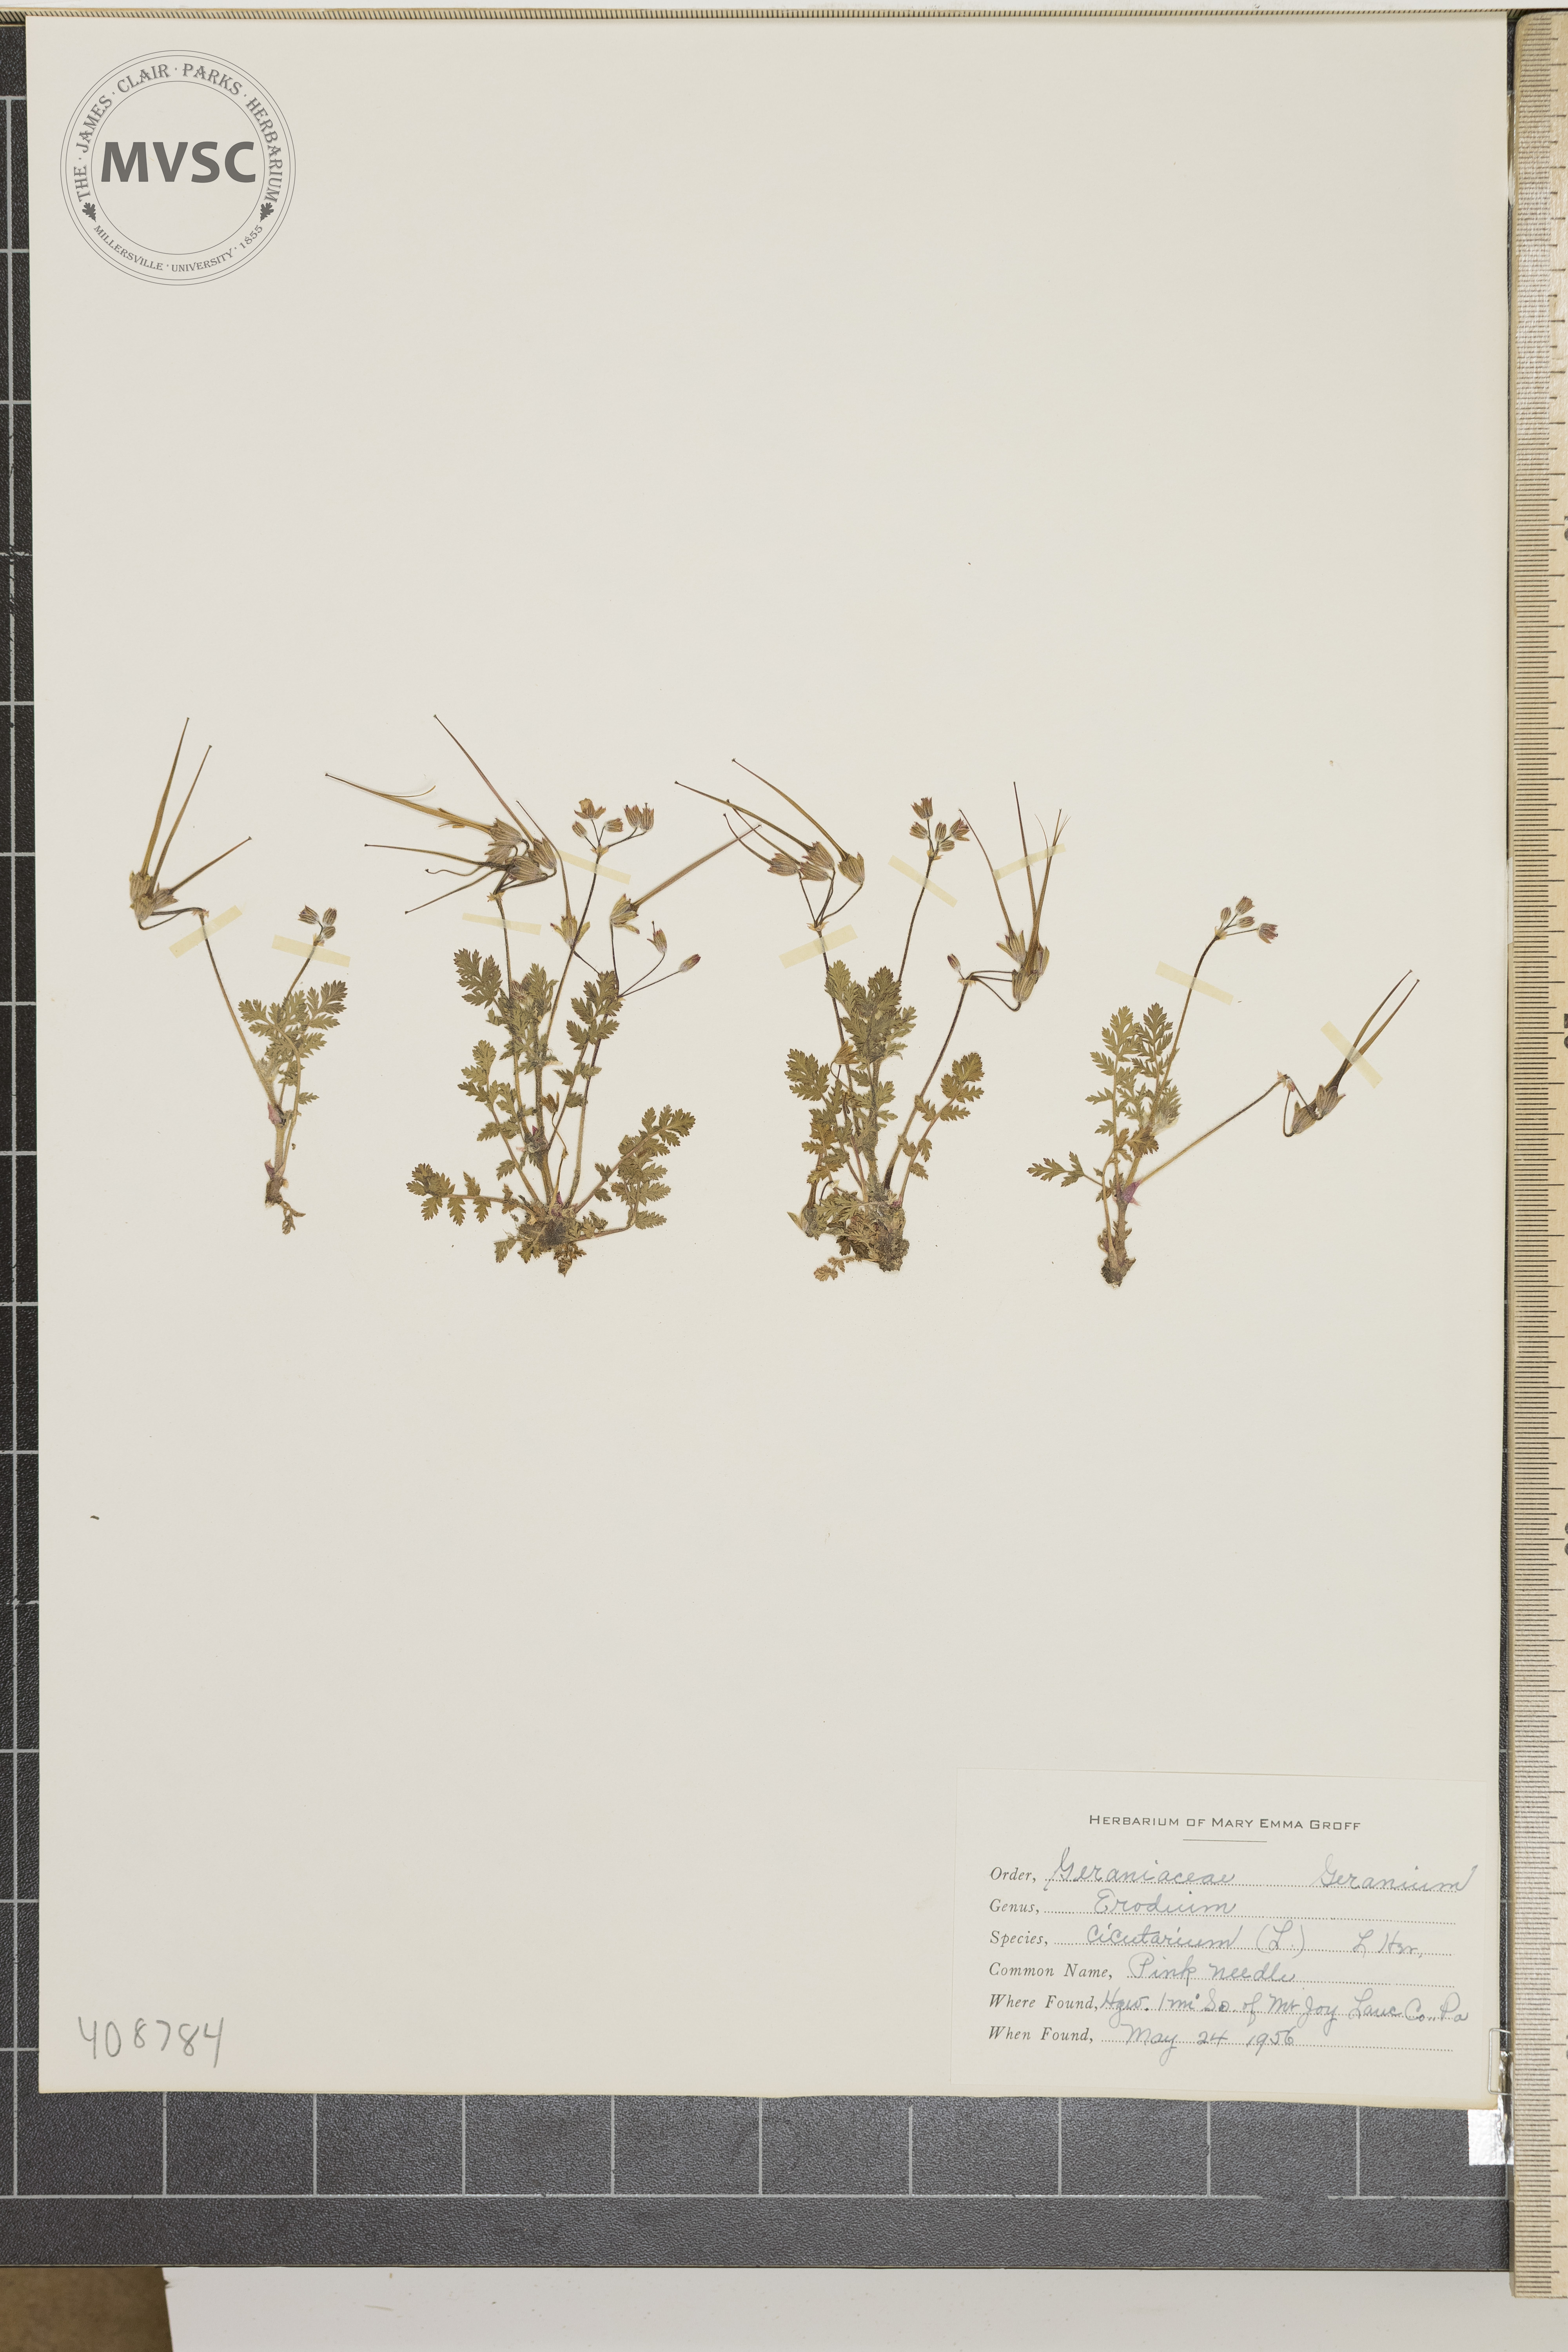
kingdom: Plantae
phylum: Tracheophyta
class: Magnoliopsida
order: Geraniales
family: Geraniaceae
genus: Erodium
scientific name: Erodium cicutarium
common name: Common stork's-bill
